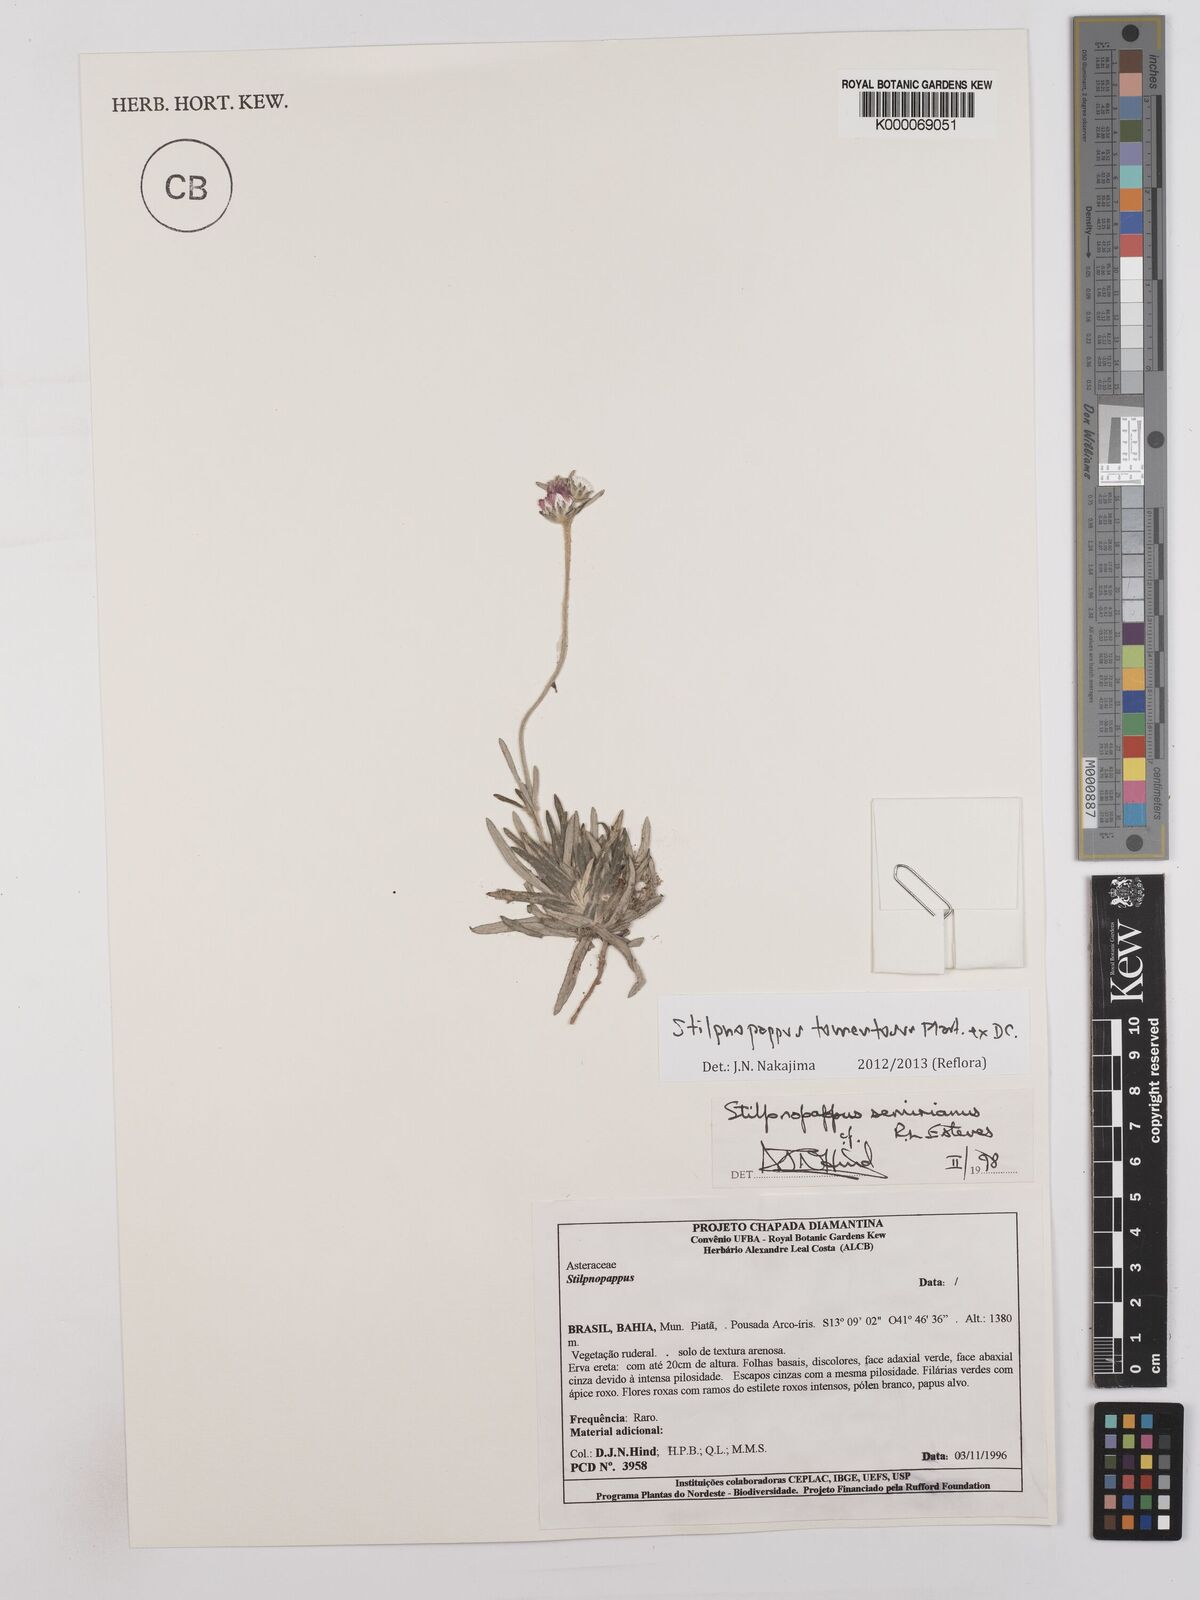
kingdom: Plantae
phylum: Tracheophyta
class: Magnoliopsida
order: Asterales
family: Asteraceae
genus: Stilpnopappus
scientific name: Stilpnopappus semirianus
